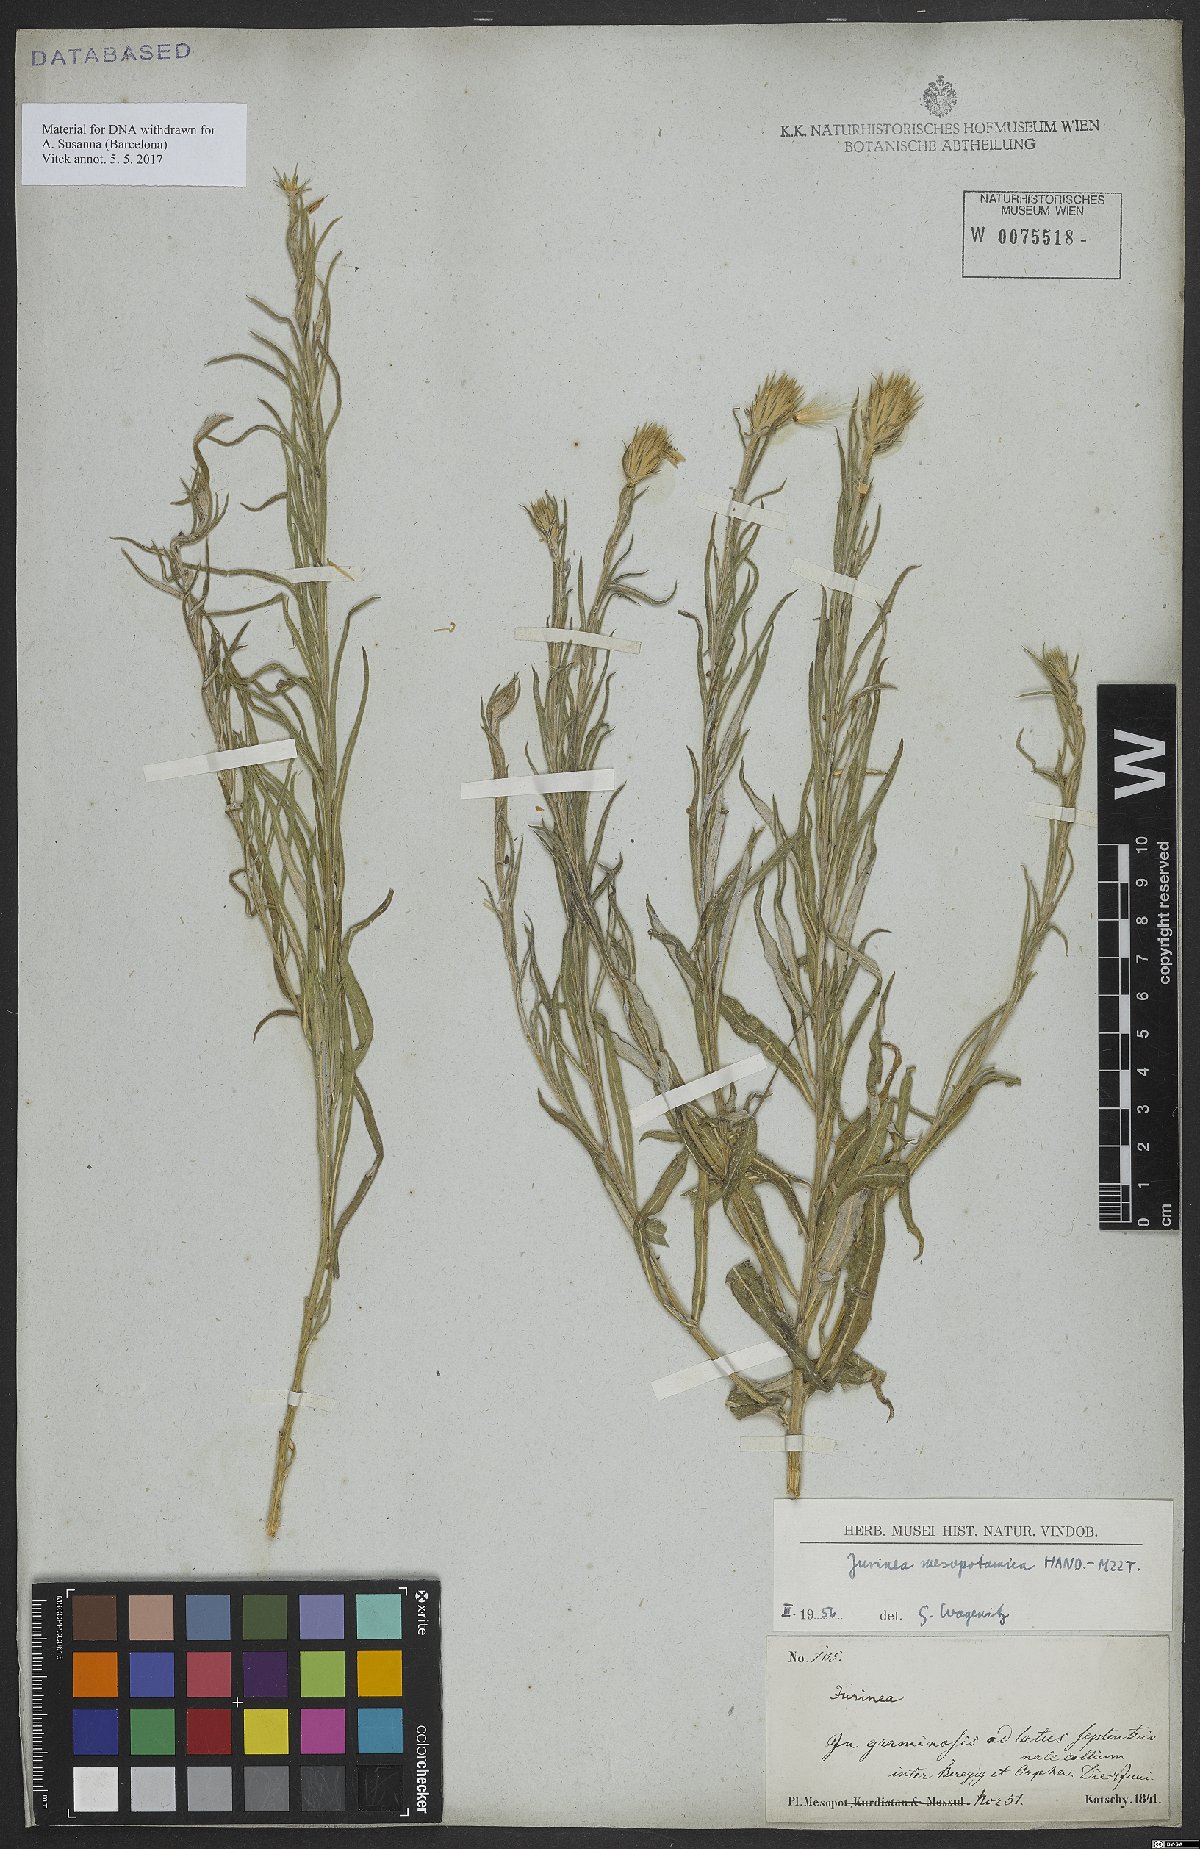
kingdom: Plantae
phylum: Tracheophyta
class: Magnoliopsida
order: Asterales
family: Asteraceae
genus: Jurinea
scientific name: Jurinea mesopotamica
